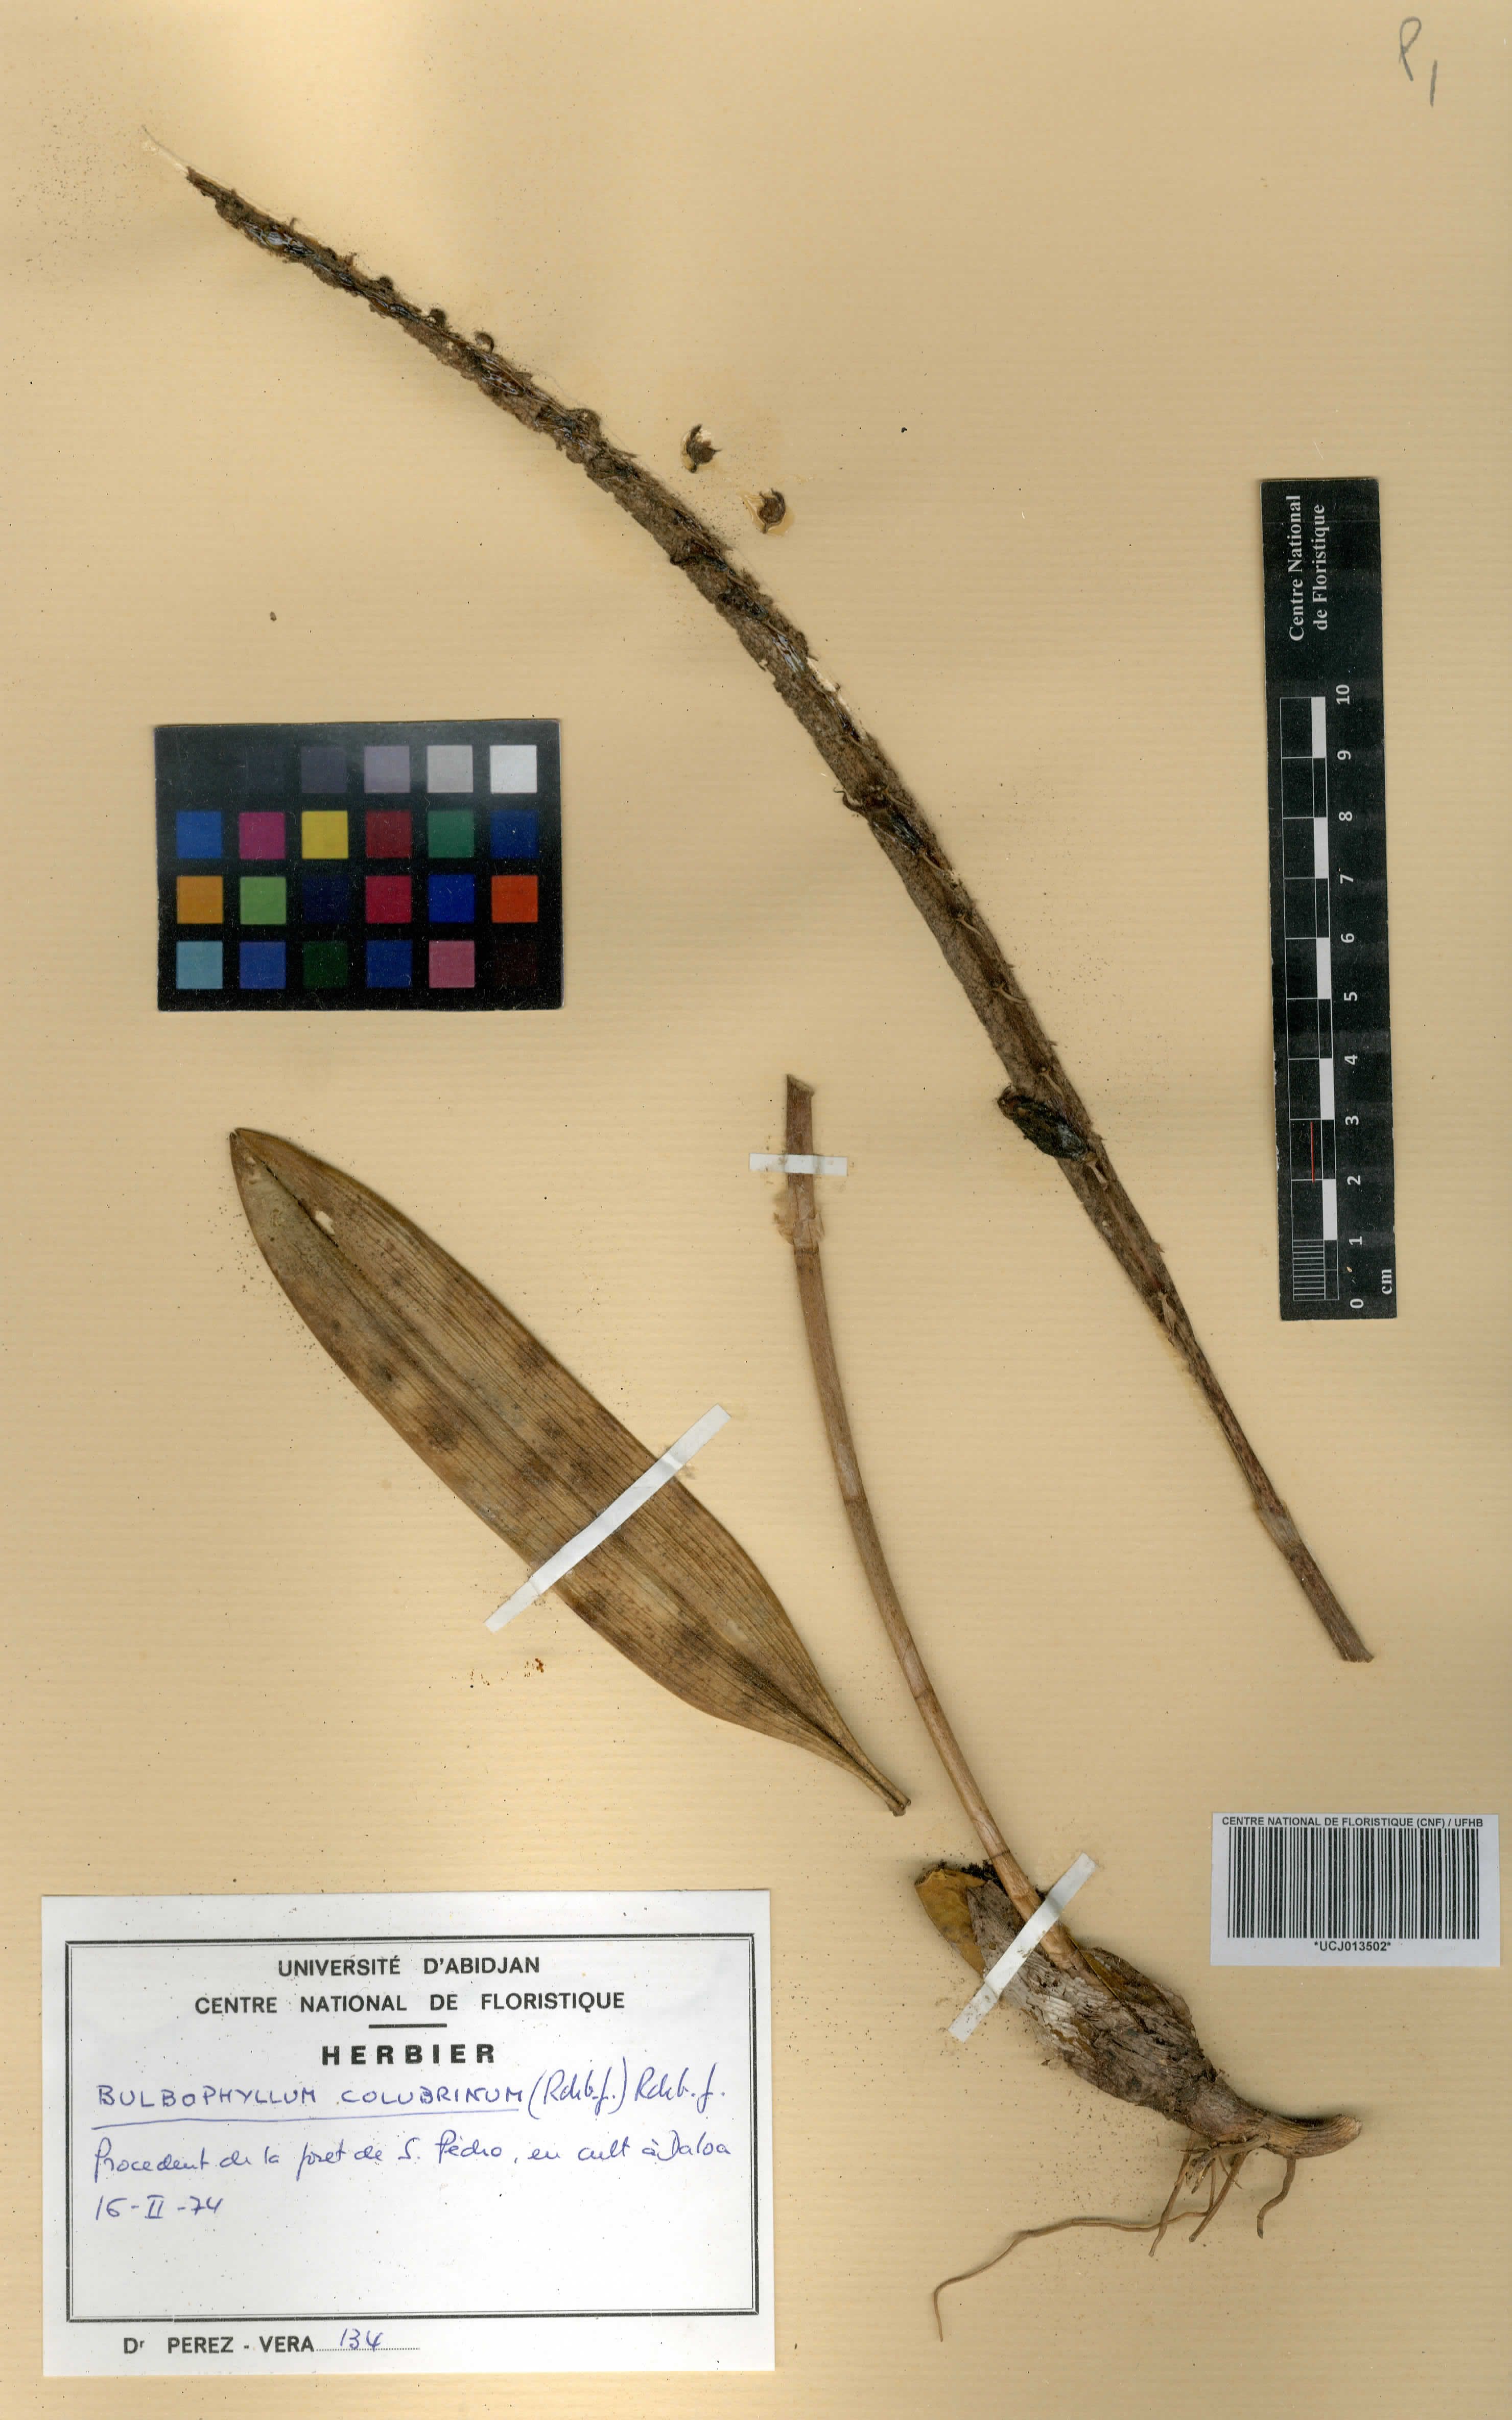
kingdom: Plantae
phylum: Tracheophyta
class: Liliopsida
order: Asparagales
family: Orchidaceae
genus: Bulbophyllum
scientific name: Bulbophyllum colubrinum
